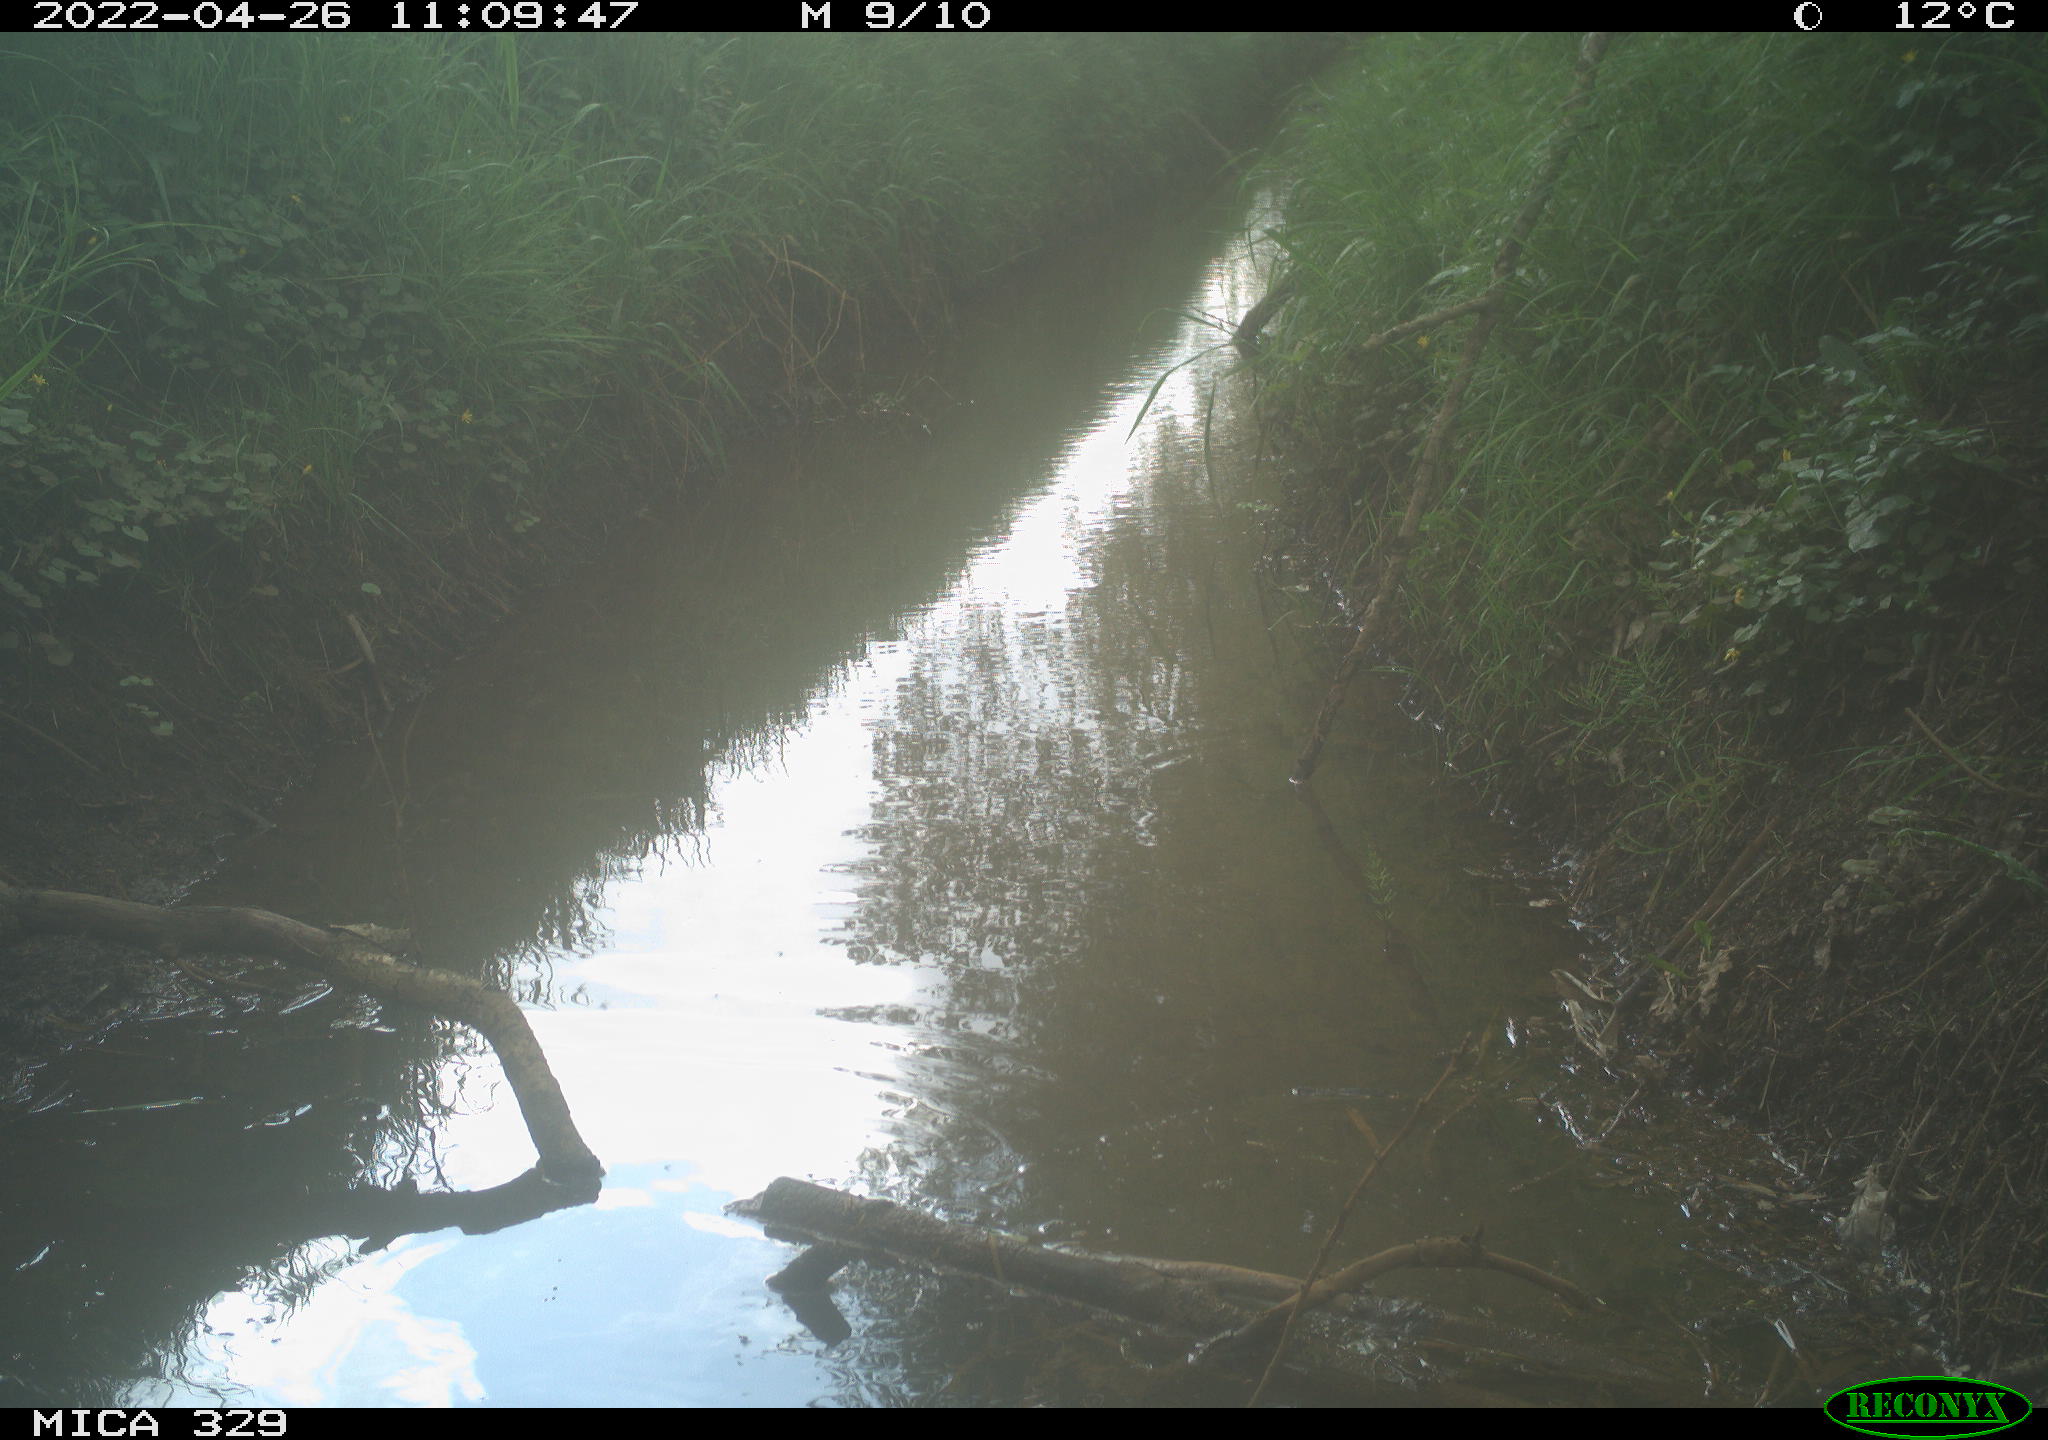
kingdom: Animalia
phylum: Chordata
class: Aves
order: Passeriformes
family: Turdidae
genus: Turdus
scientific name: Turdus merula
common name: Common blackbird
